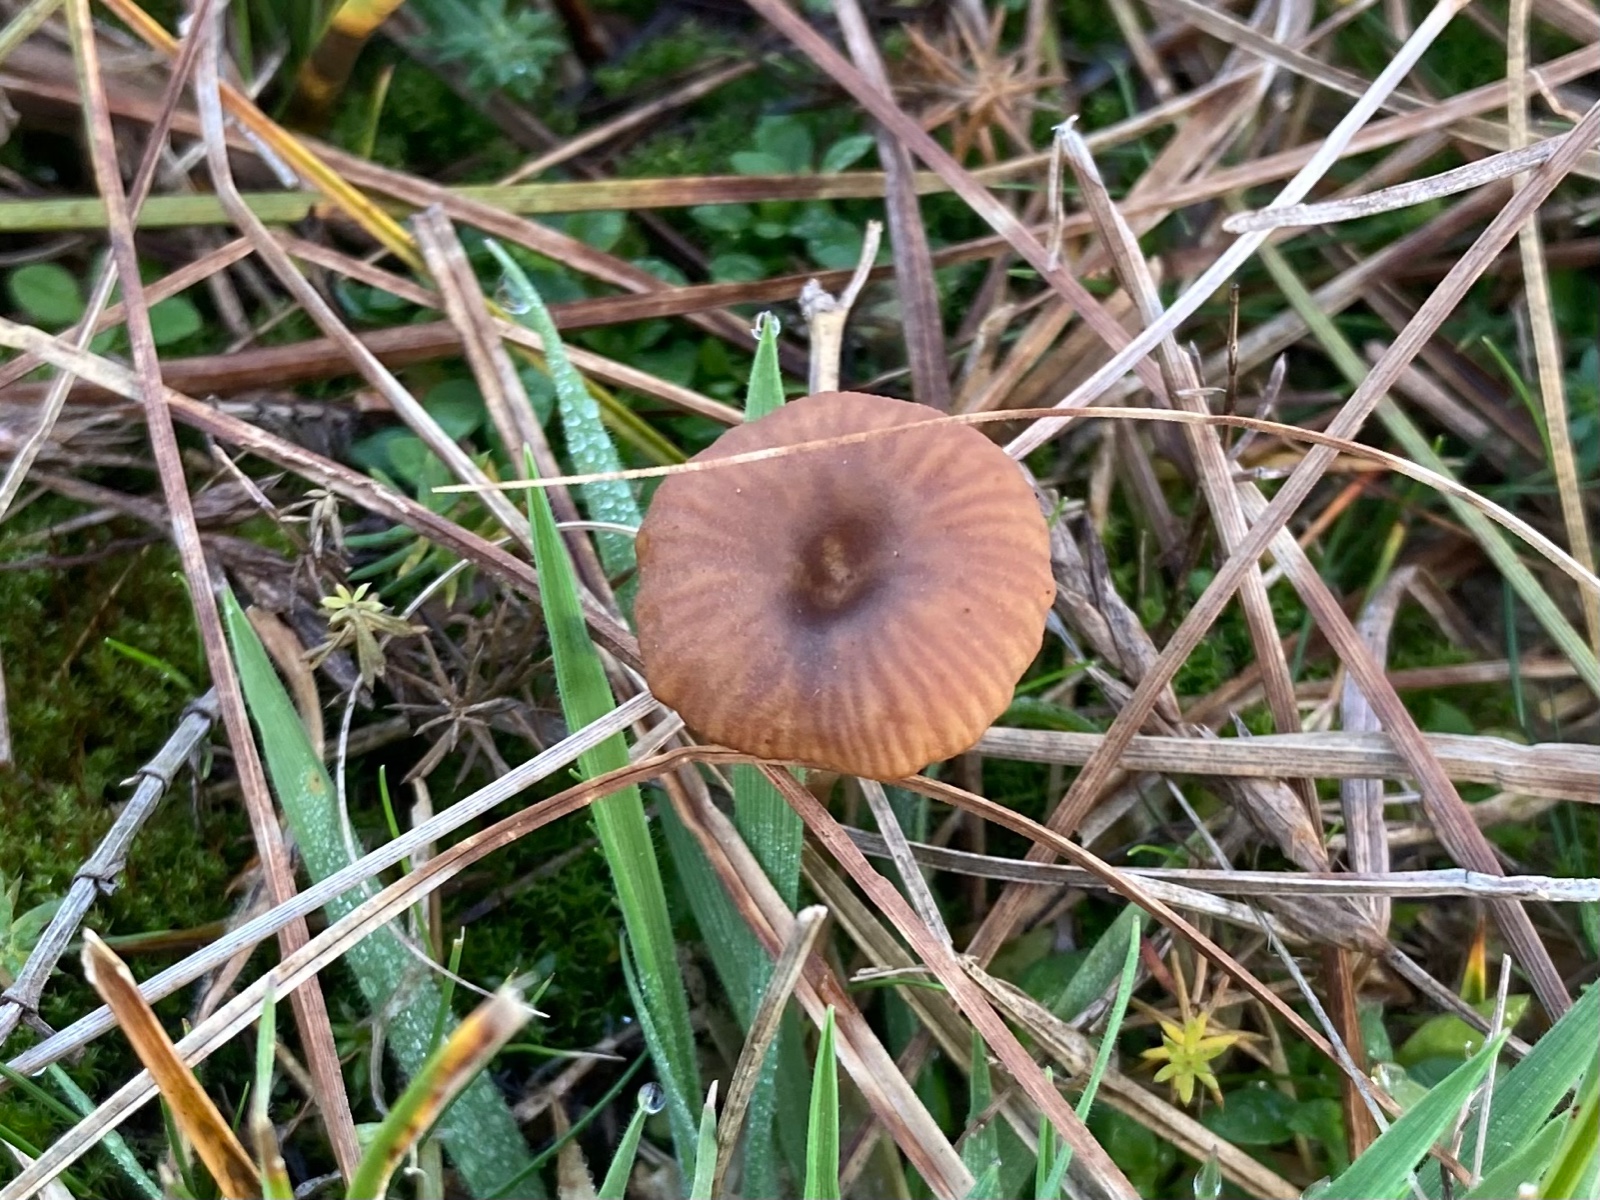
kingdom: Fungi
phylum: Basidiomycota
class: Agaricomycetes
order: Agaricales
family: Tricholomataceae
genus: Omphalina
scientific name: Omphalina pyxidata
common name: rødbrun navlehat
